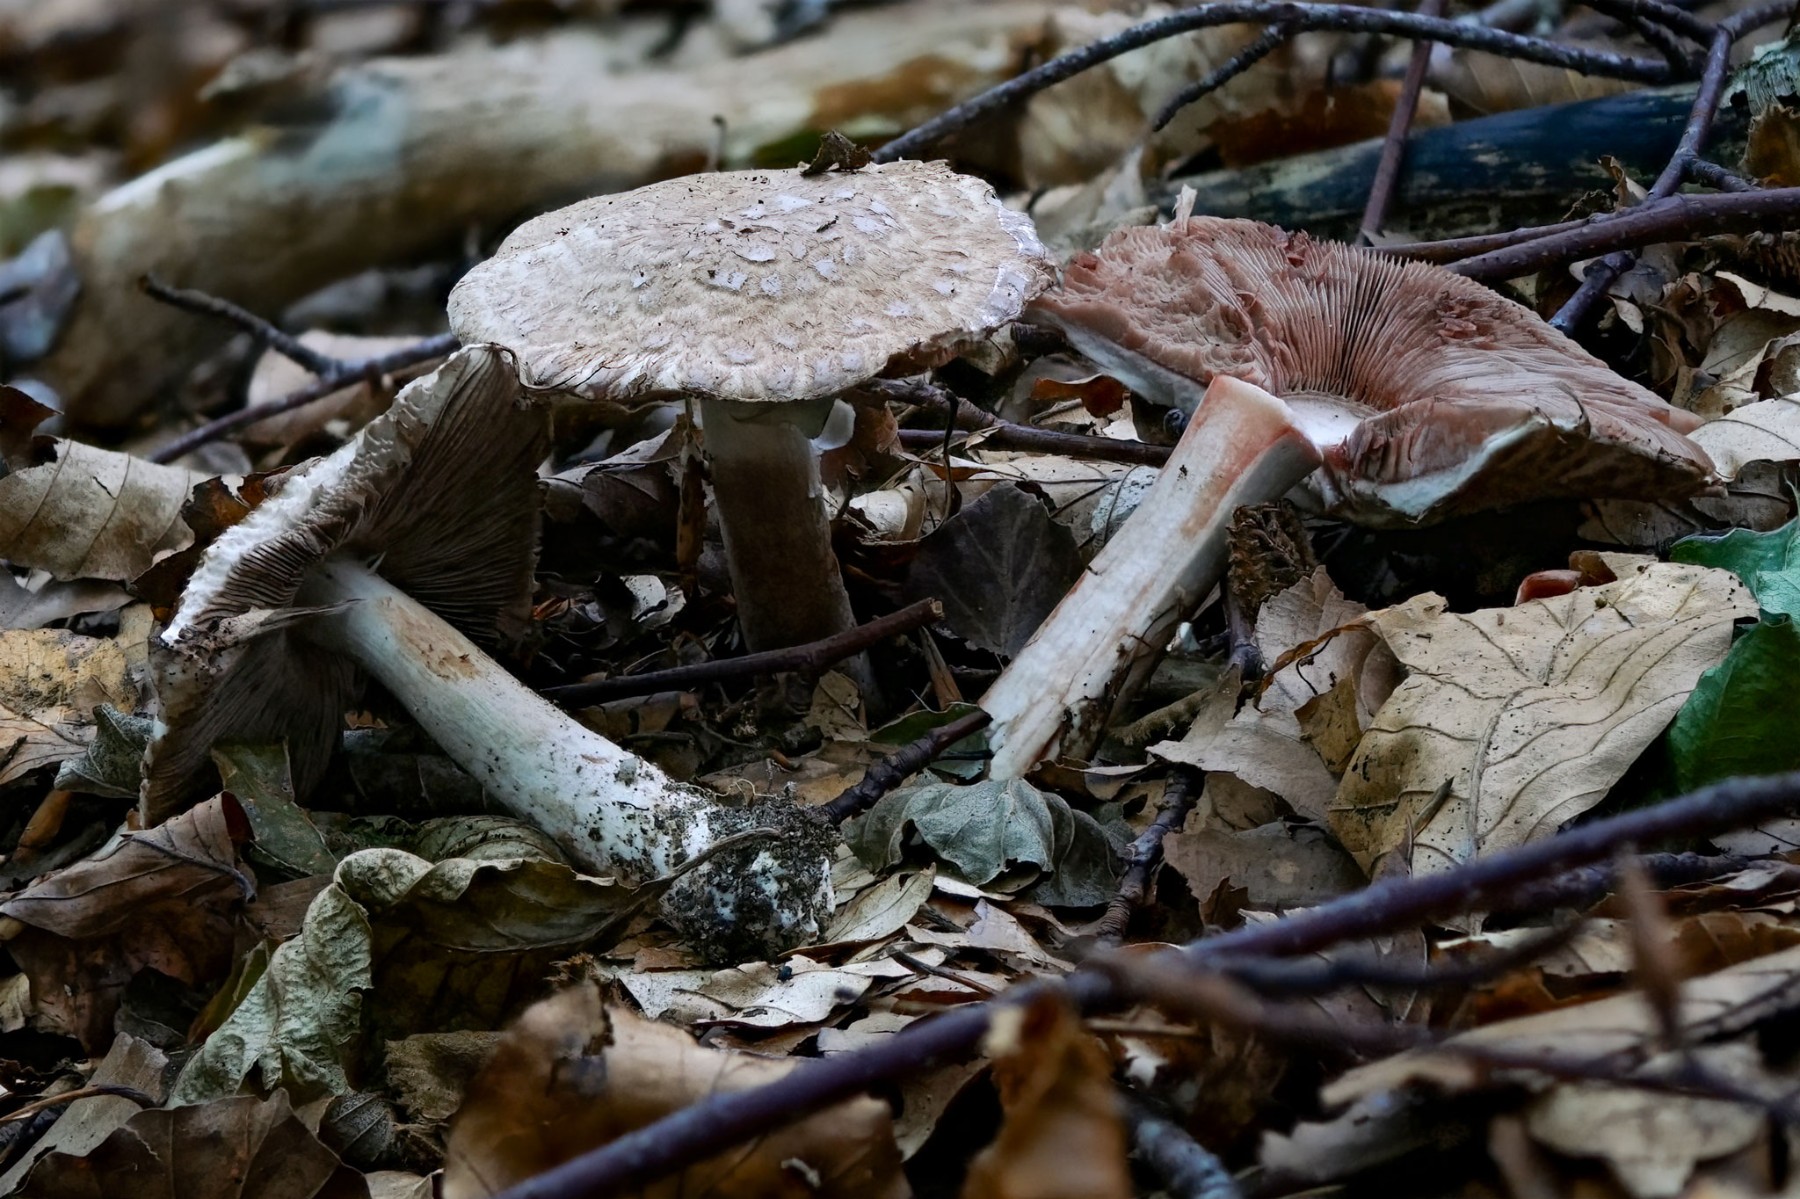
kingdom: Fungi
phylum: Basidiomycota
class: Agaricomycetes
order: Agaricales
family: Agaricaceae
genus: Agaricus
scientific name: Agaricus
